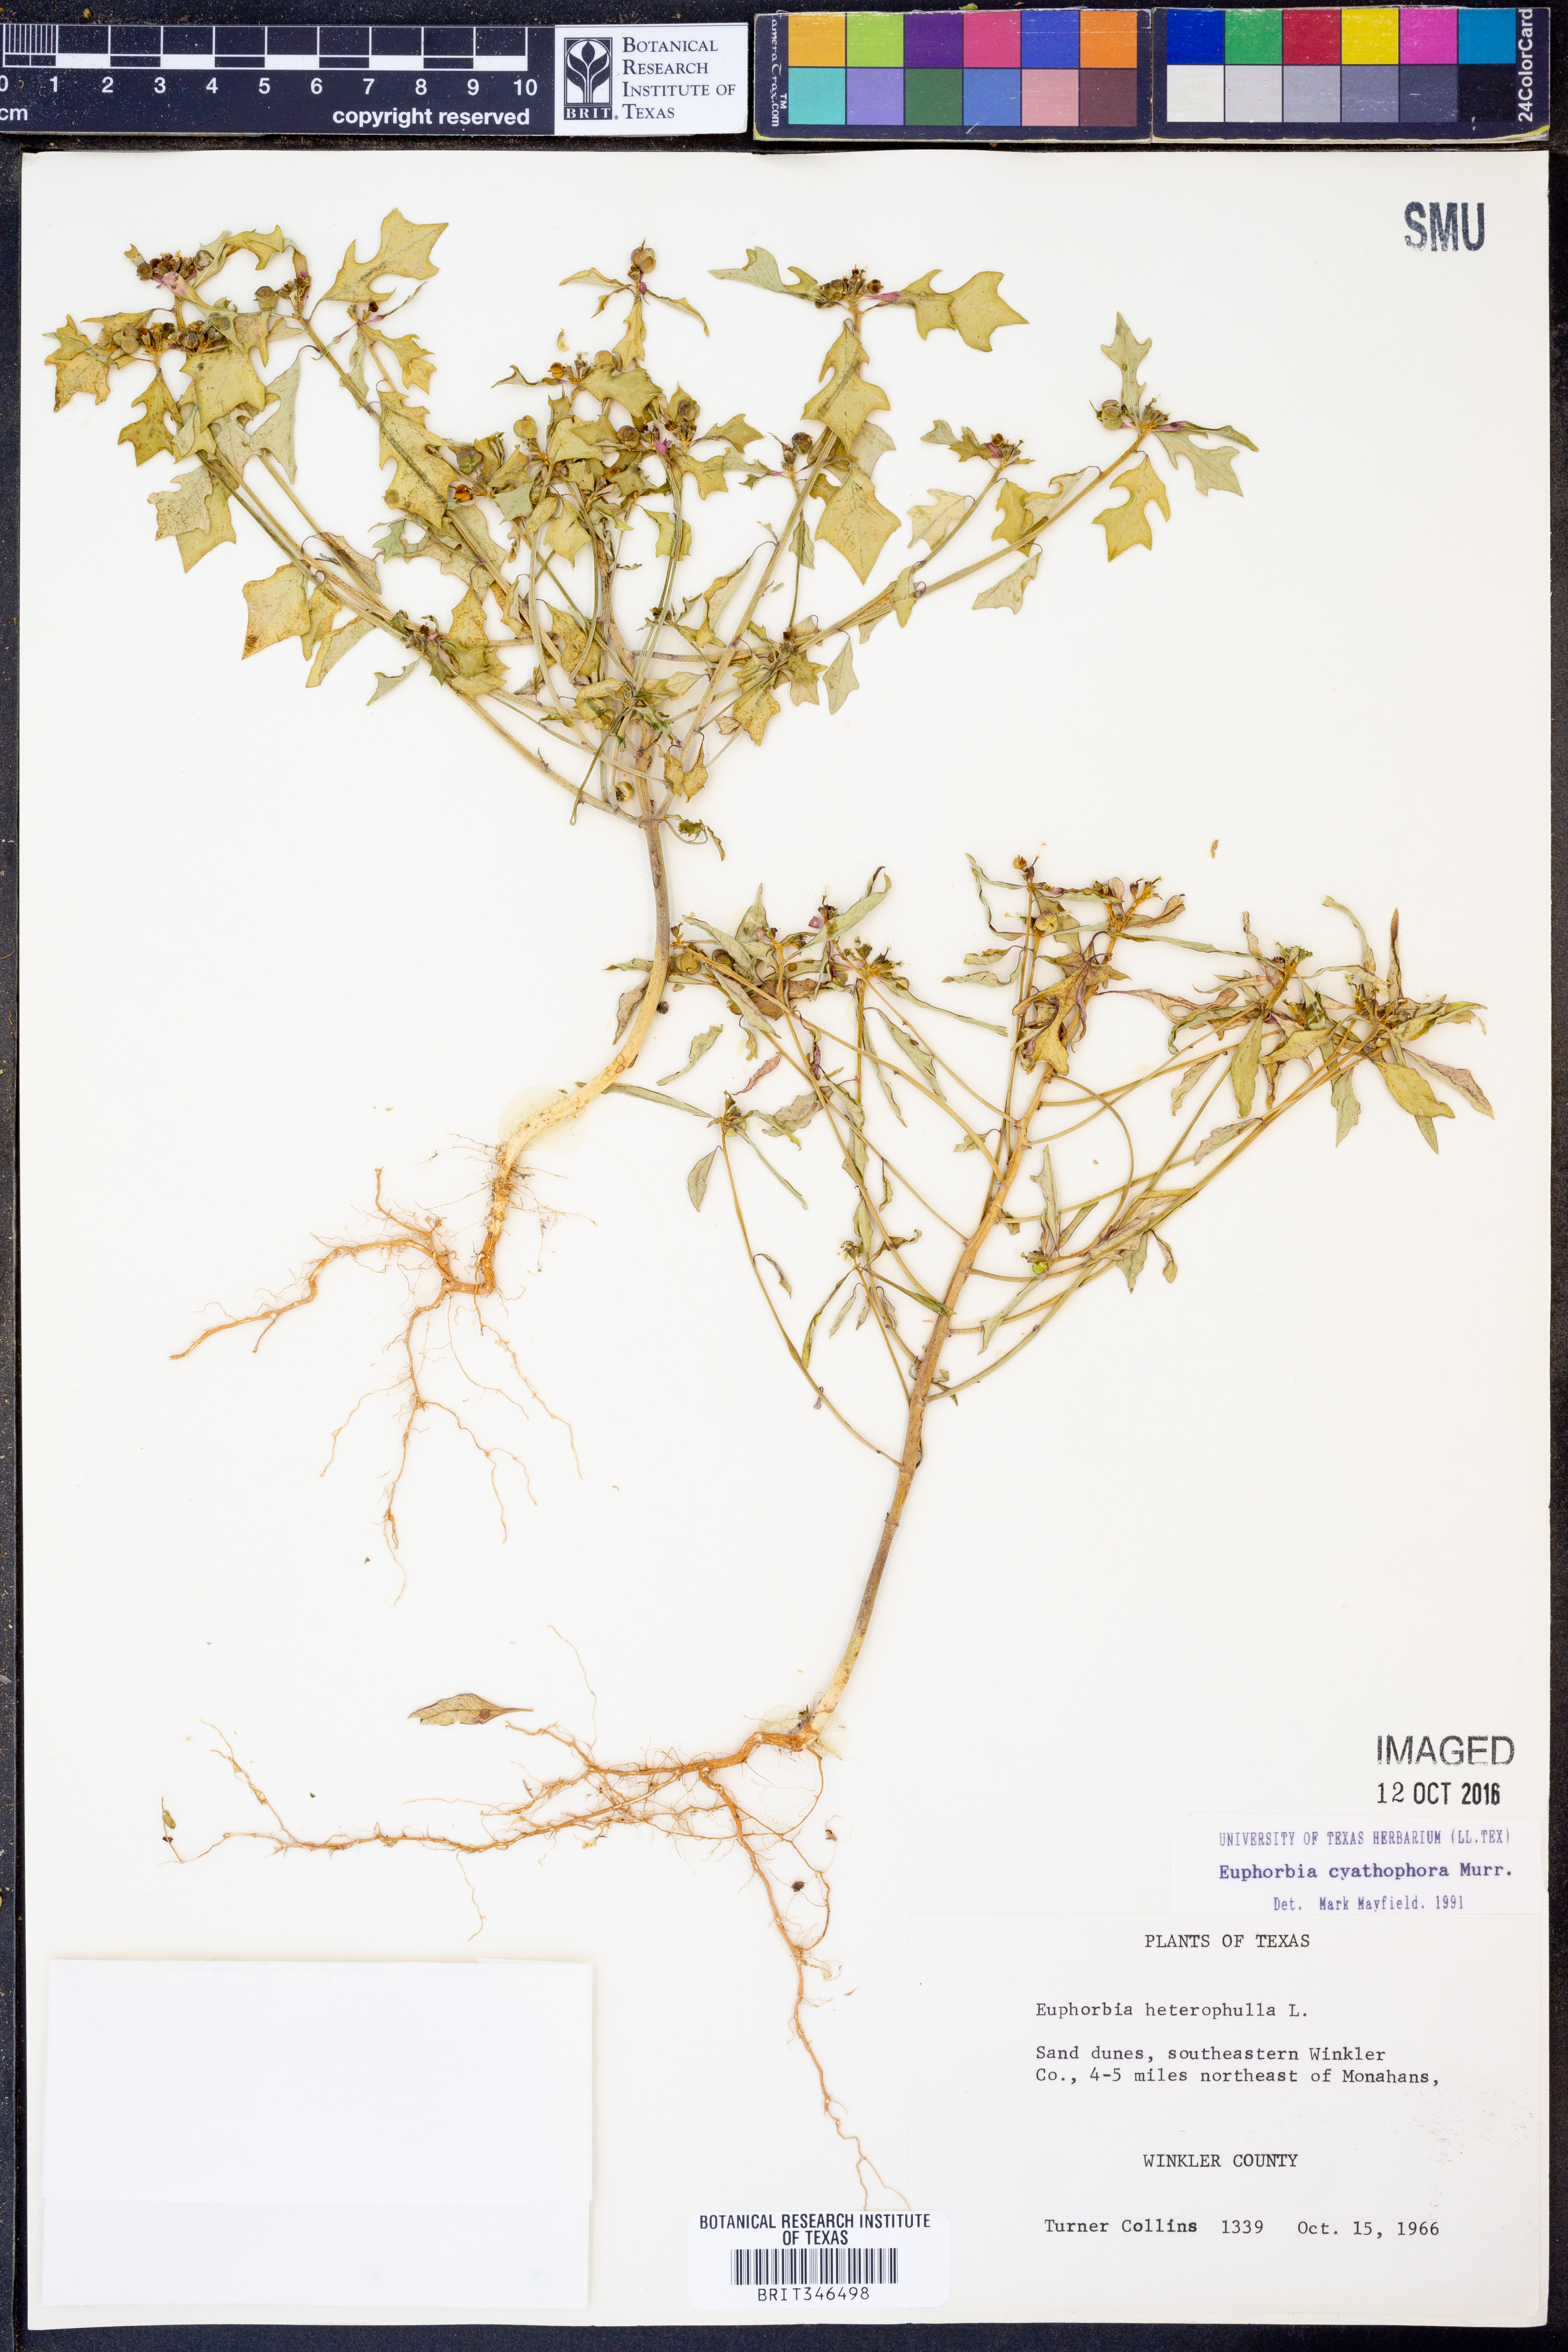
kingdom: Plantae
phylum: Tracheophyta
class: Magnoliopsida
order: Malpighiales
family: Euphorbiaceae
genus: Euphorbia
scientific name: Euphorbia heterophylla
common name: Mexican fireplant
